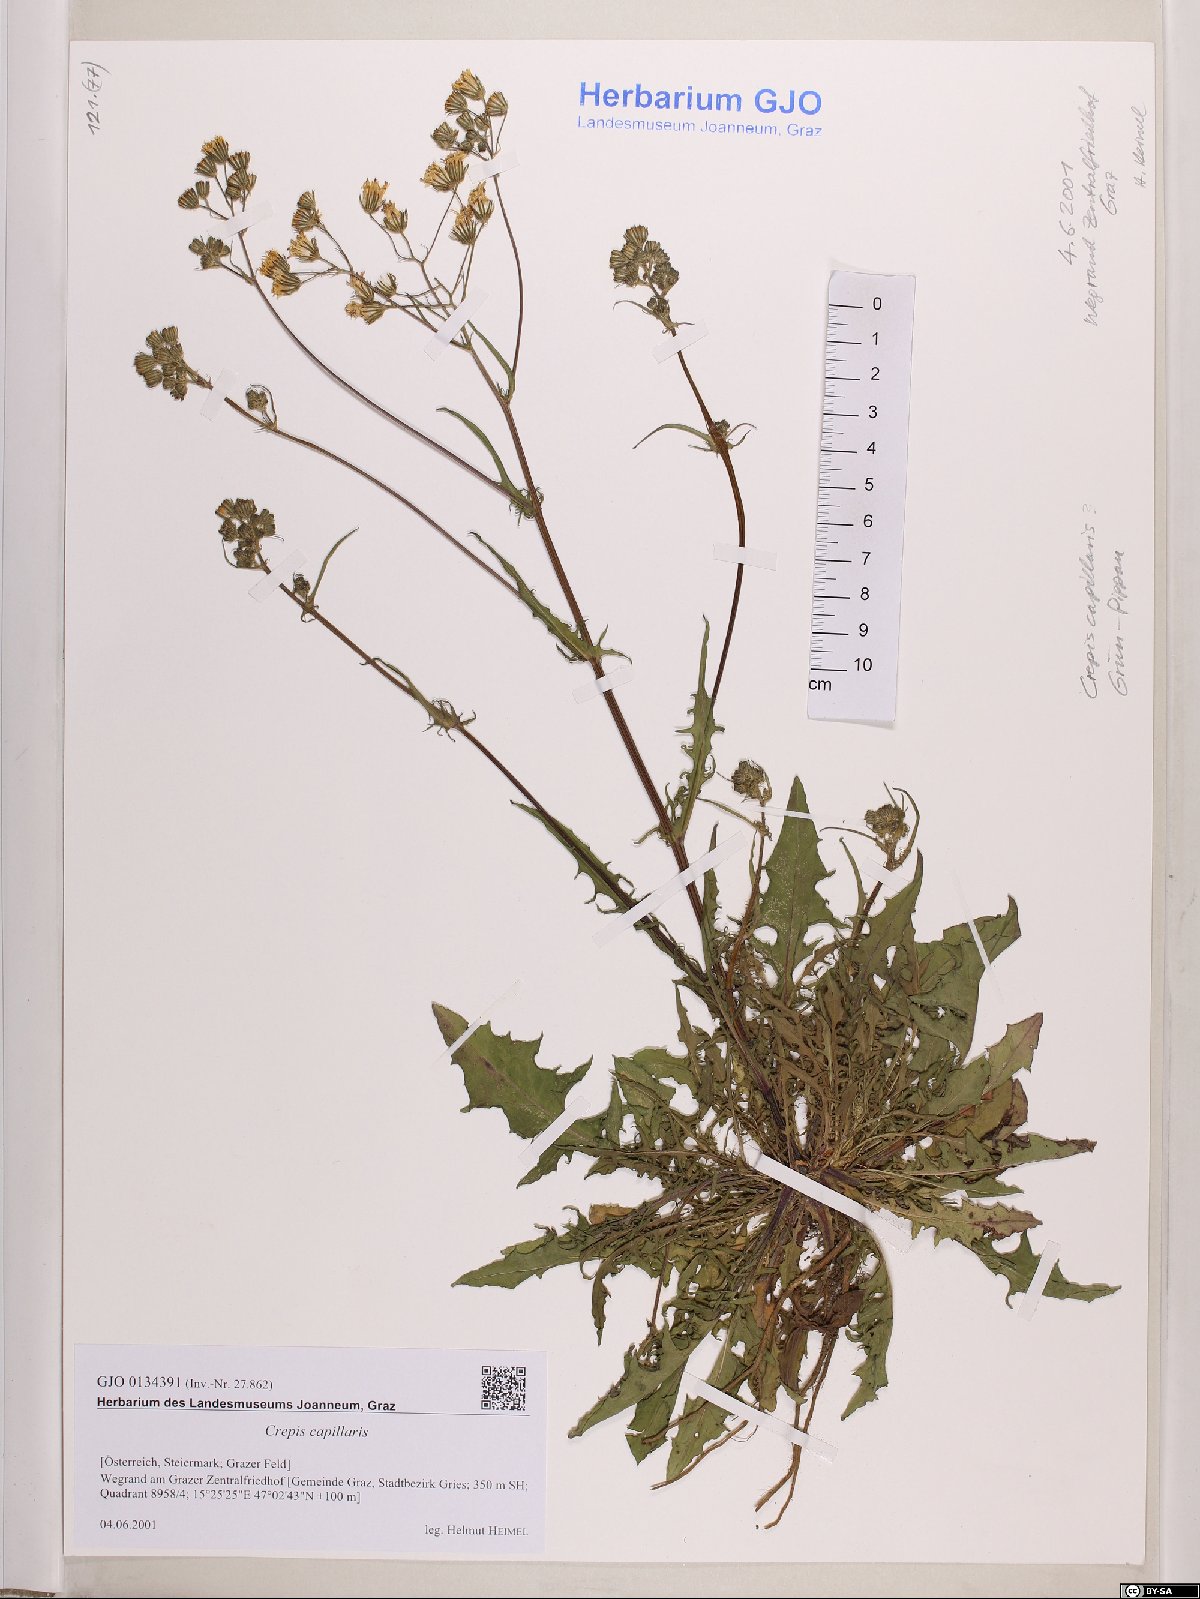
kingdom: Plantae
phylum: Tracheophyta
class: Magnoliopsida
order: Asterales
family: Asteraceae
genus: Crepis
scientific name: Crepis capillaris
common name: Smooth hawksbeard
